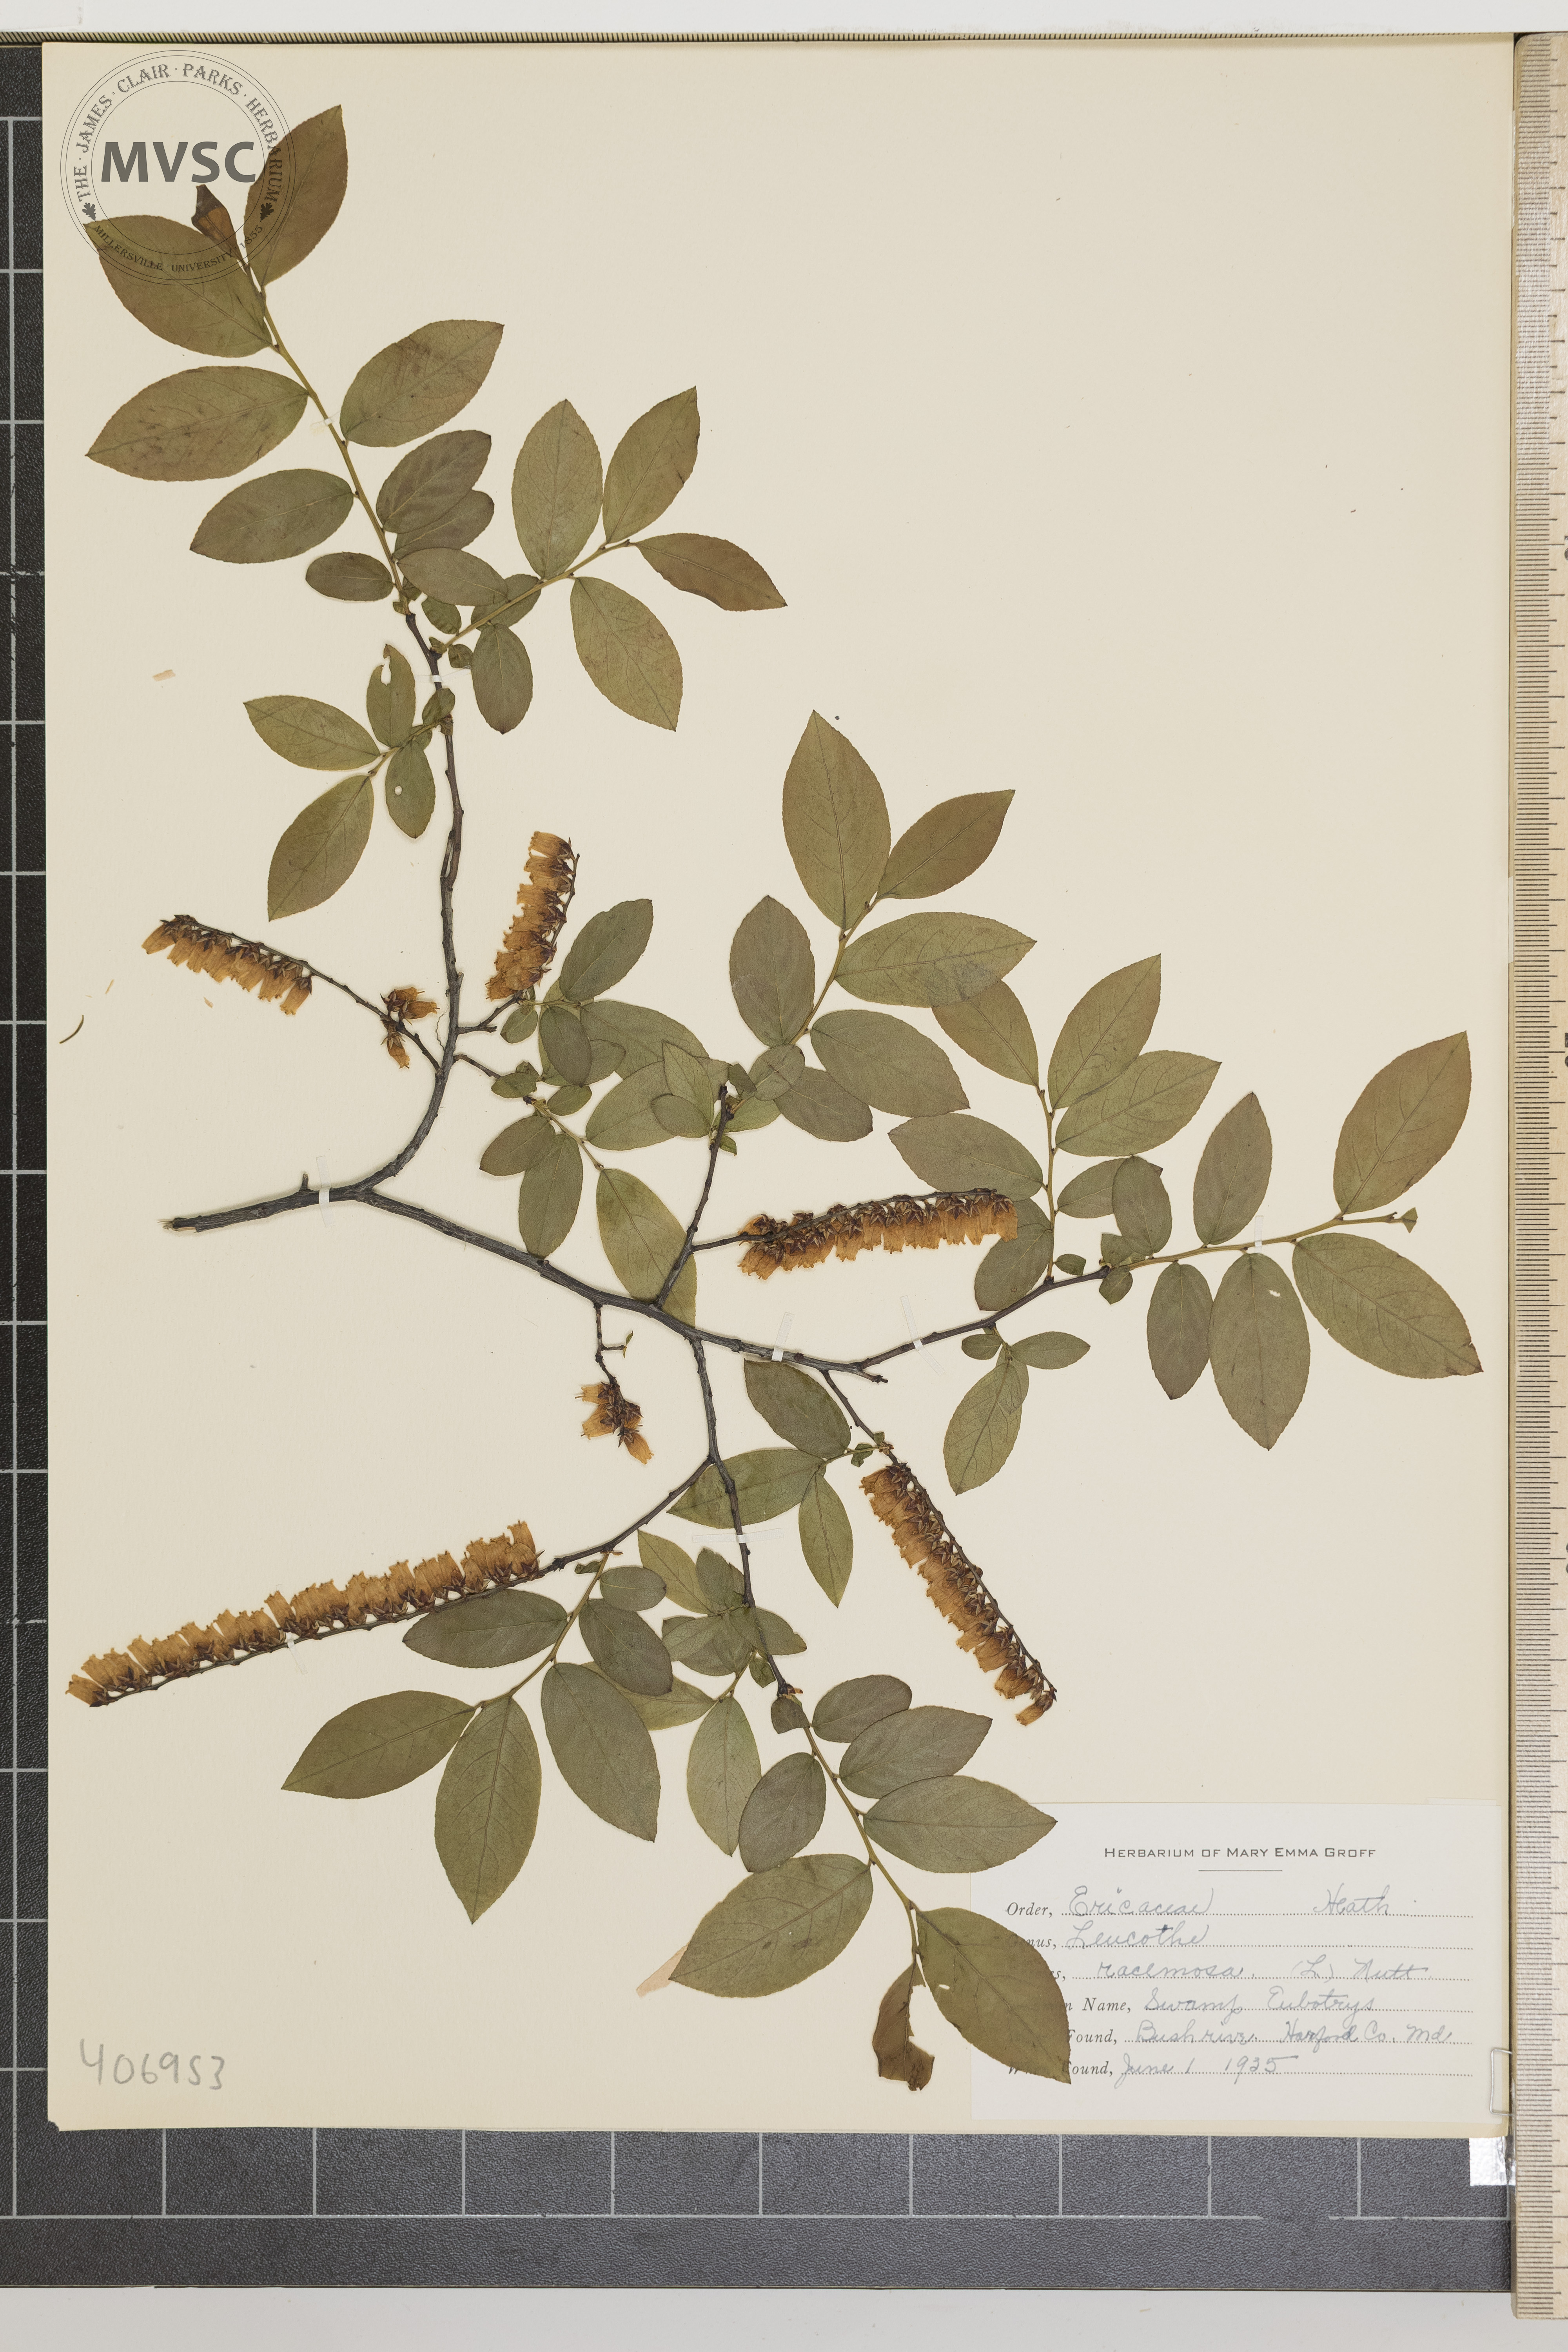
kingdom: Plantae
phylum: Tracheophyta
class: Magnoliopsida
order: Ericales
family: Ericaceae
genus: Eubotrys
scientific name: Eubotrys racemosa
